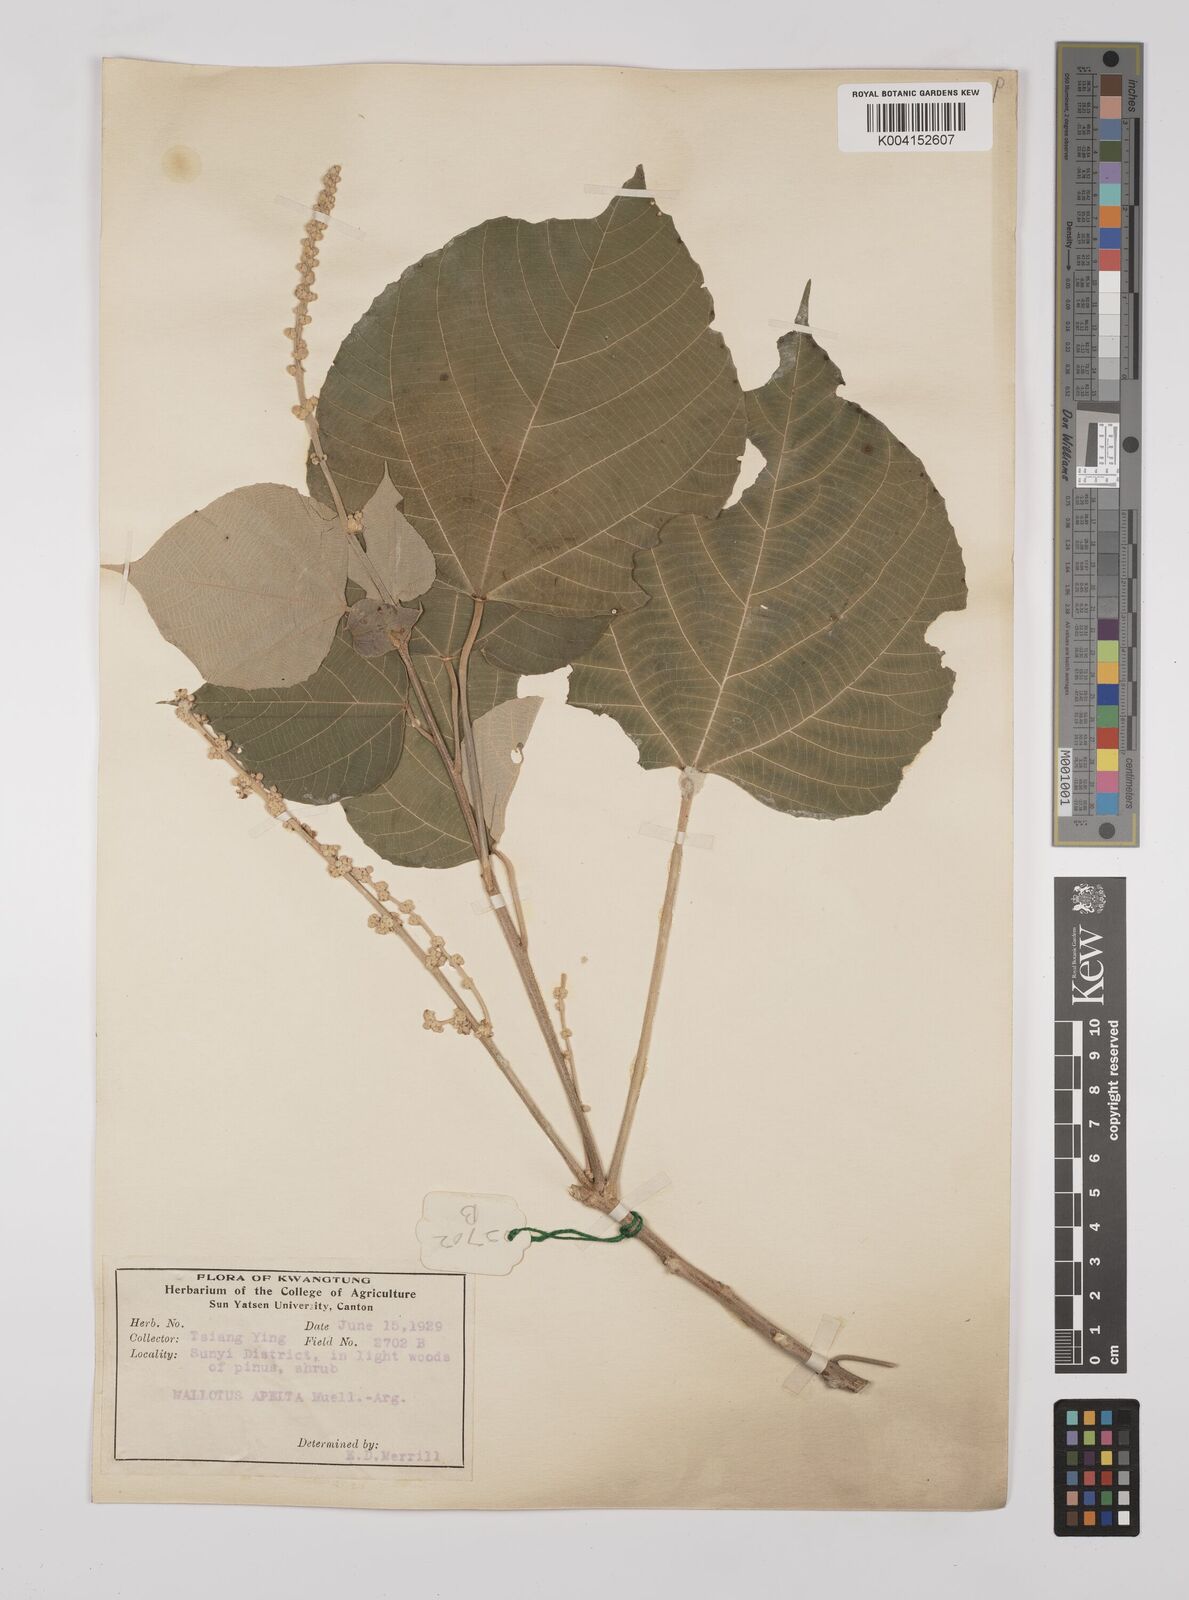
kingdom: Plantae
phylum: Tracheophyta
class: Magnoliopsida
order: Malpighiales
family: Euphorbiaceae
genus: Mallotus
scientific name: Mallotus apelta
